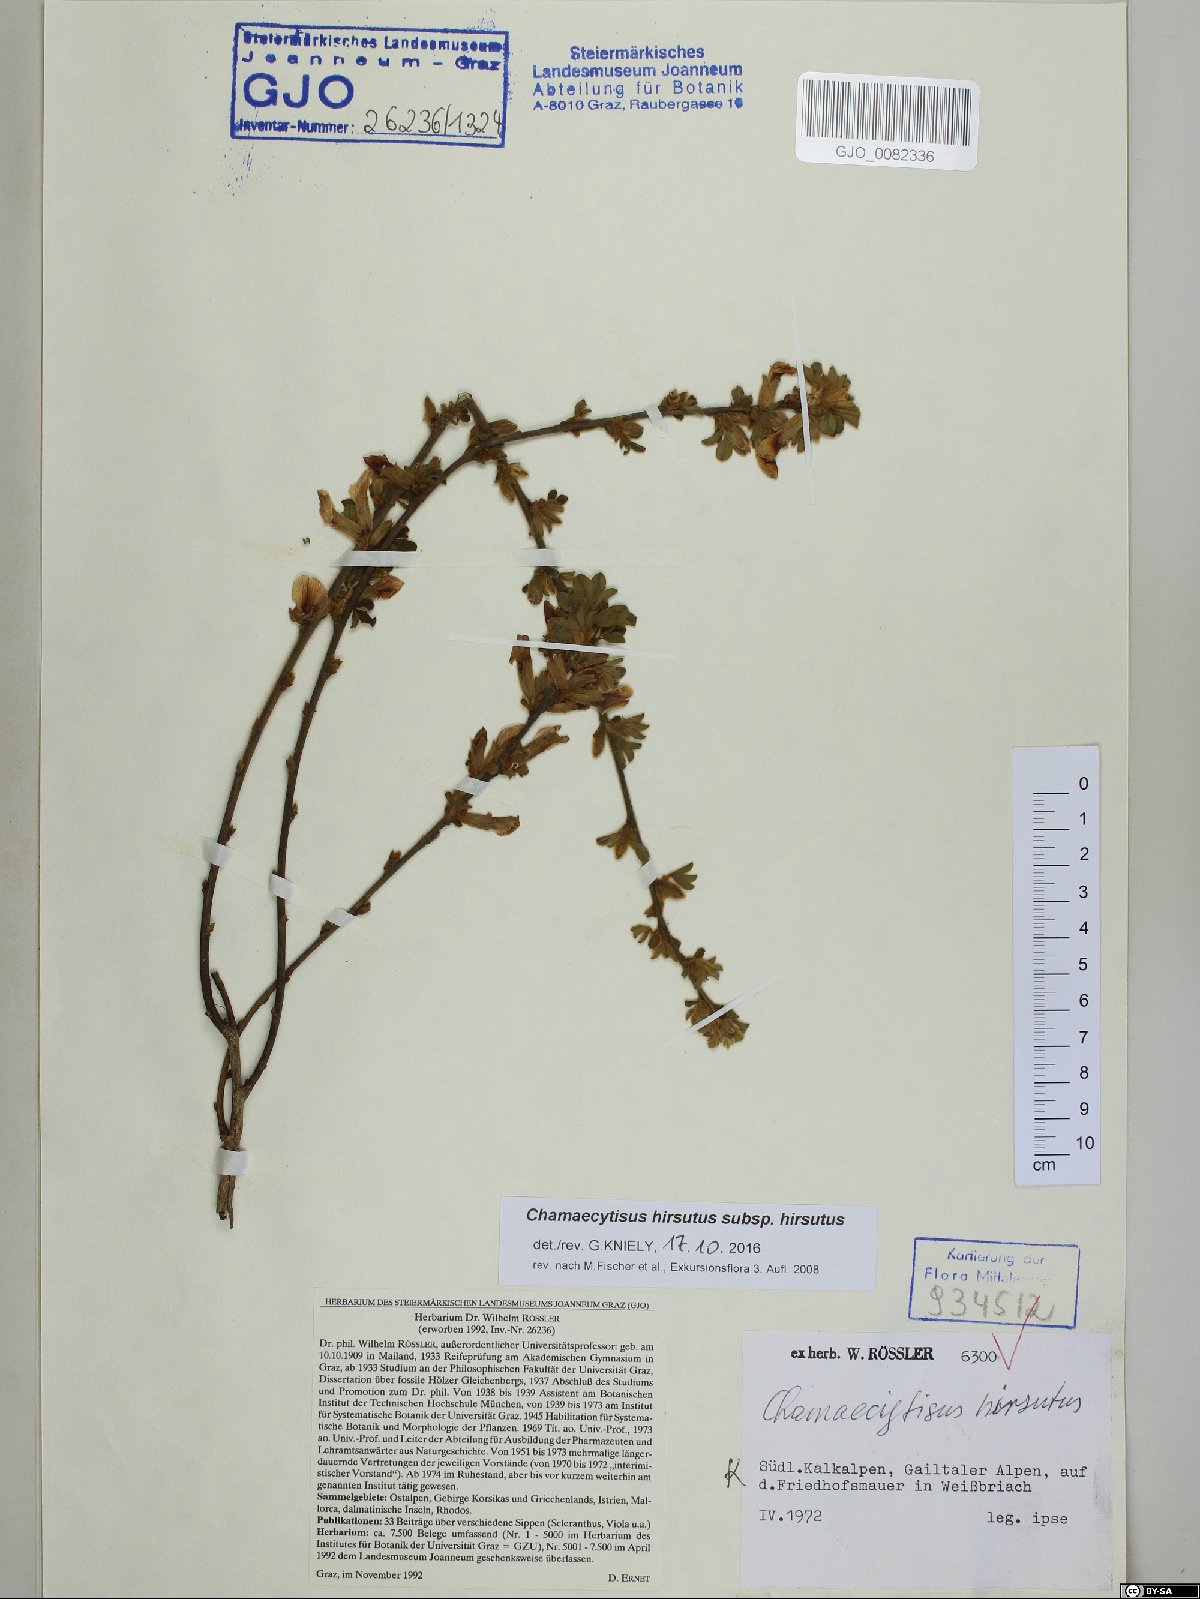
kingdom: Plantae
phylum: Tracheophyta
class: Magnoliopsida
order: Fabales
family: Fabaceae
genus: Chamaecytisus
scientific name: Chamaecytisus hirsutus
